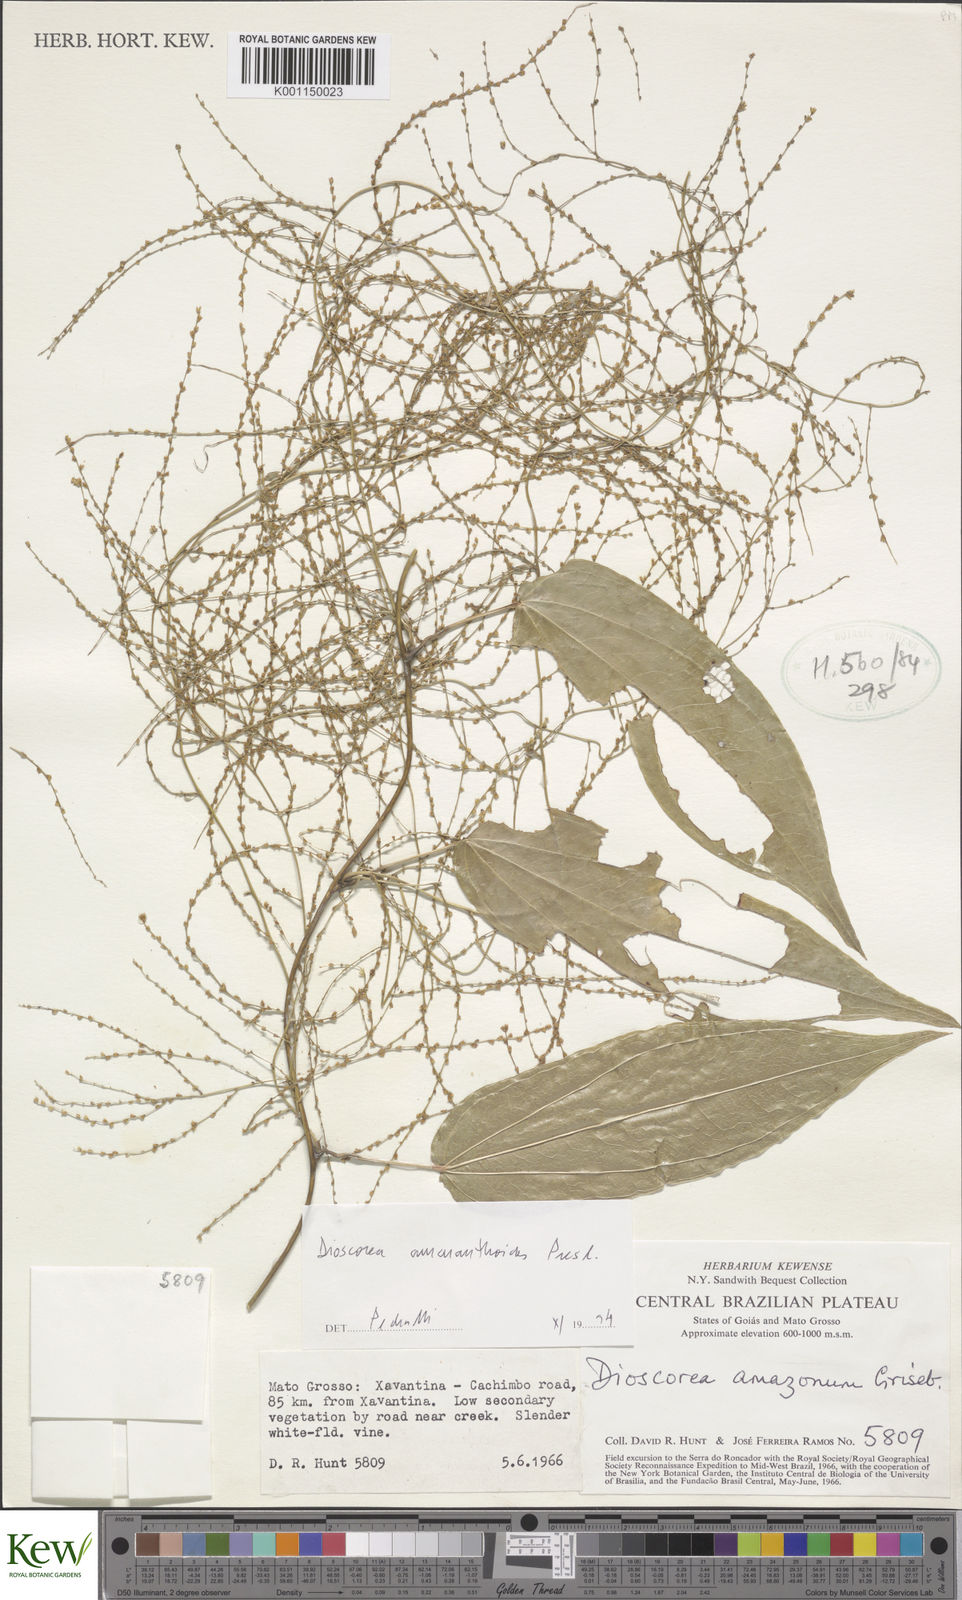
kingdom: Plantae
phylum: Tracheophyta
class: Liliopsida
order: Dioscoreales
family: Dioscoreaceae
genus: Dioscorea
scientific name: Dioscorea amazonum
